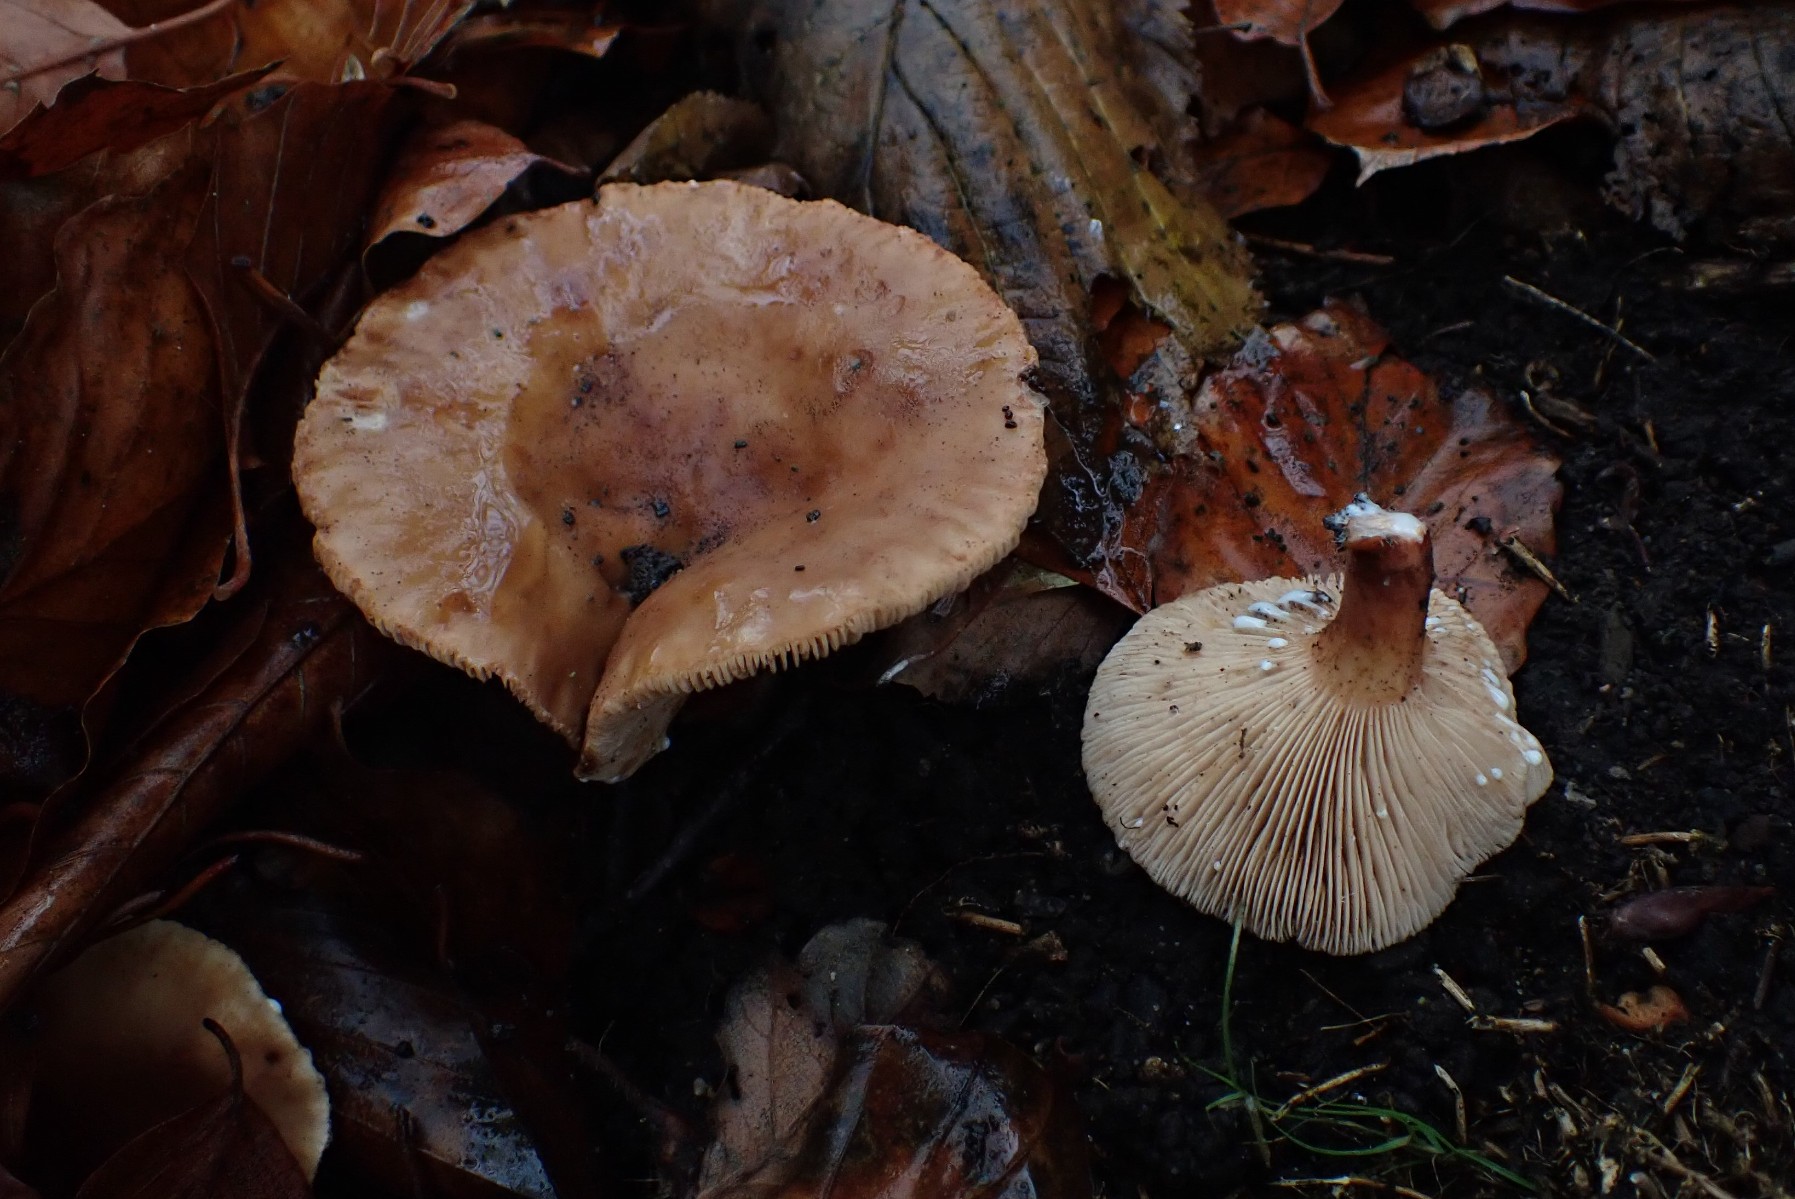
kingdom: Fungi
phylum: Basidiomycota
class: Agaricomycetes
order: Russulales
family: Russulaceae
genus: Lactarius
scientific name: Lactarius subdulcis
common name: sødlig mælkehat
